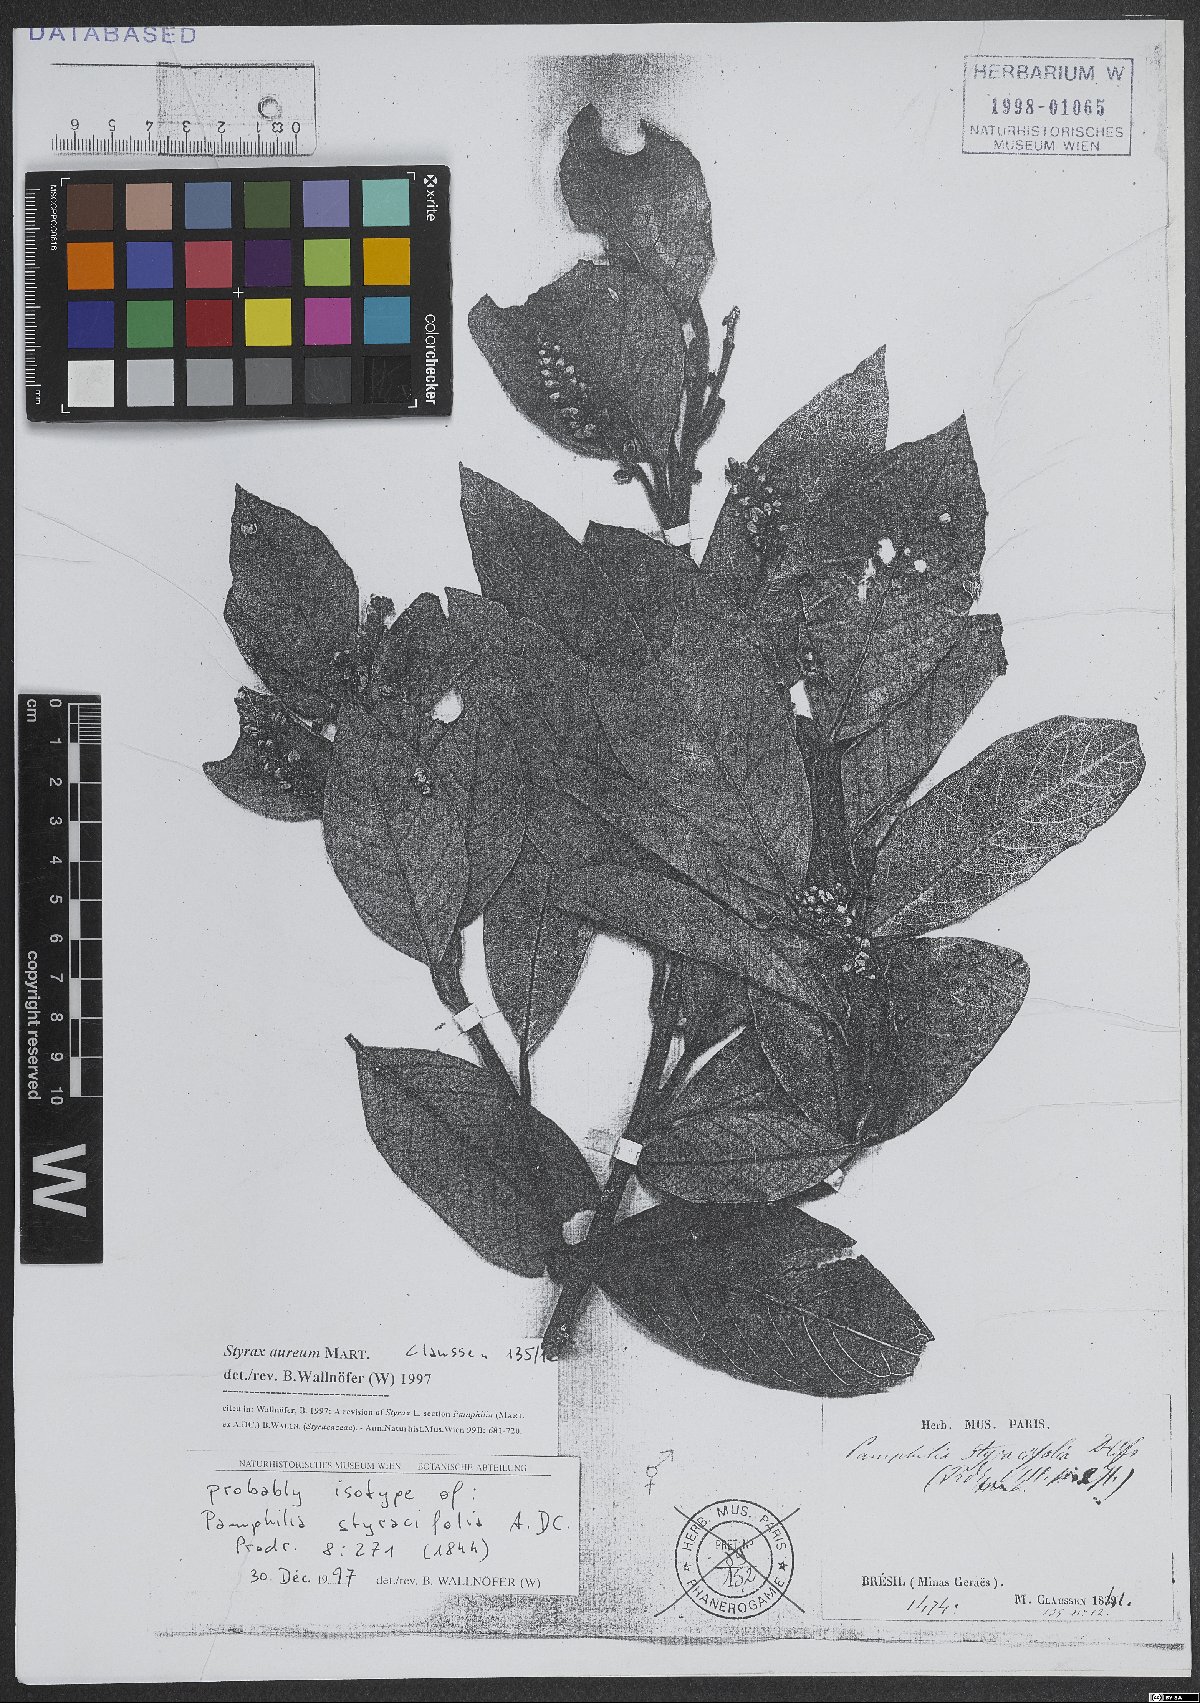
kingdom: Plantae
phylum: Tracheophyta
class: Magnoliopsida
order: Ericales
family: Styracaceae
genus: Styrax
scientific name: Styrax aureus
